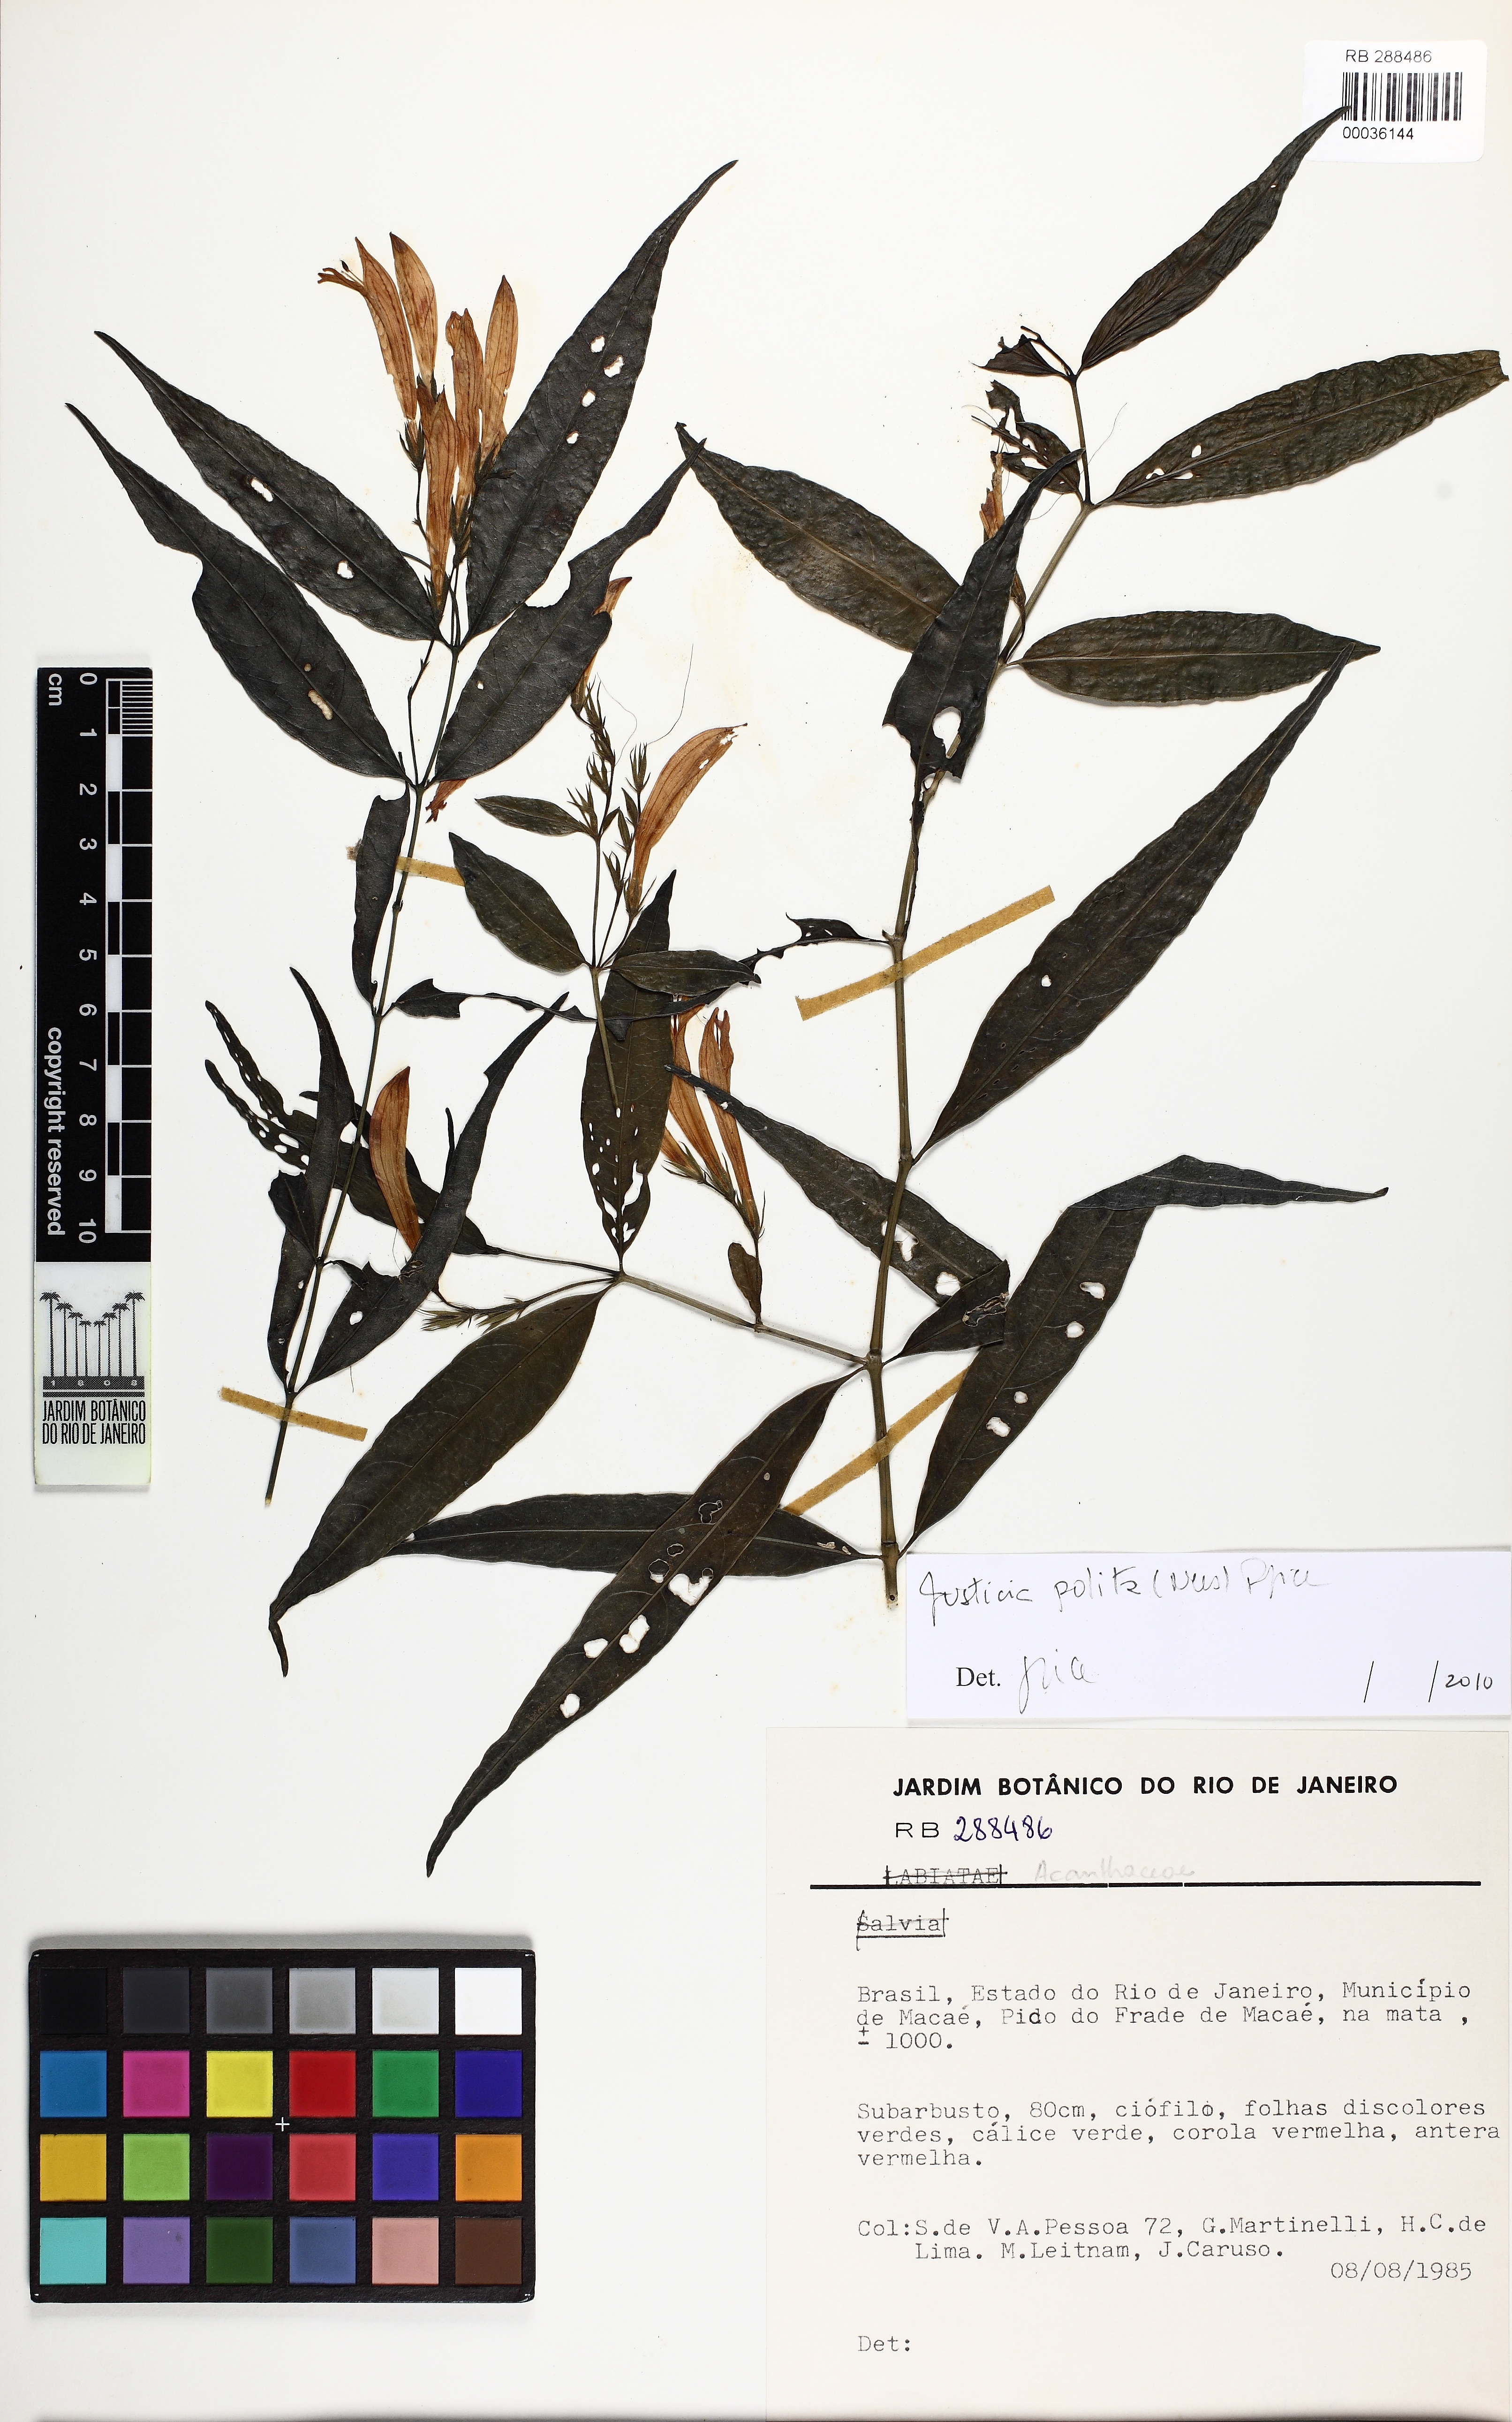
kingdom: Plantae
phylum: Tracheophyta
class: Magnoliopsida
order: Lamiales
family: Acanthaceae
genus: Justicia
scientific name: Justicia
